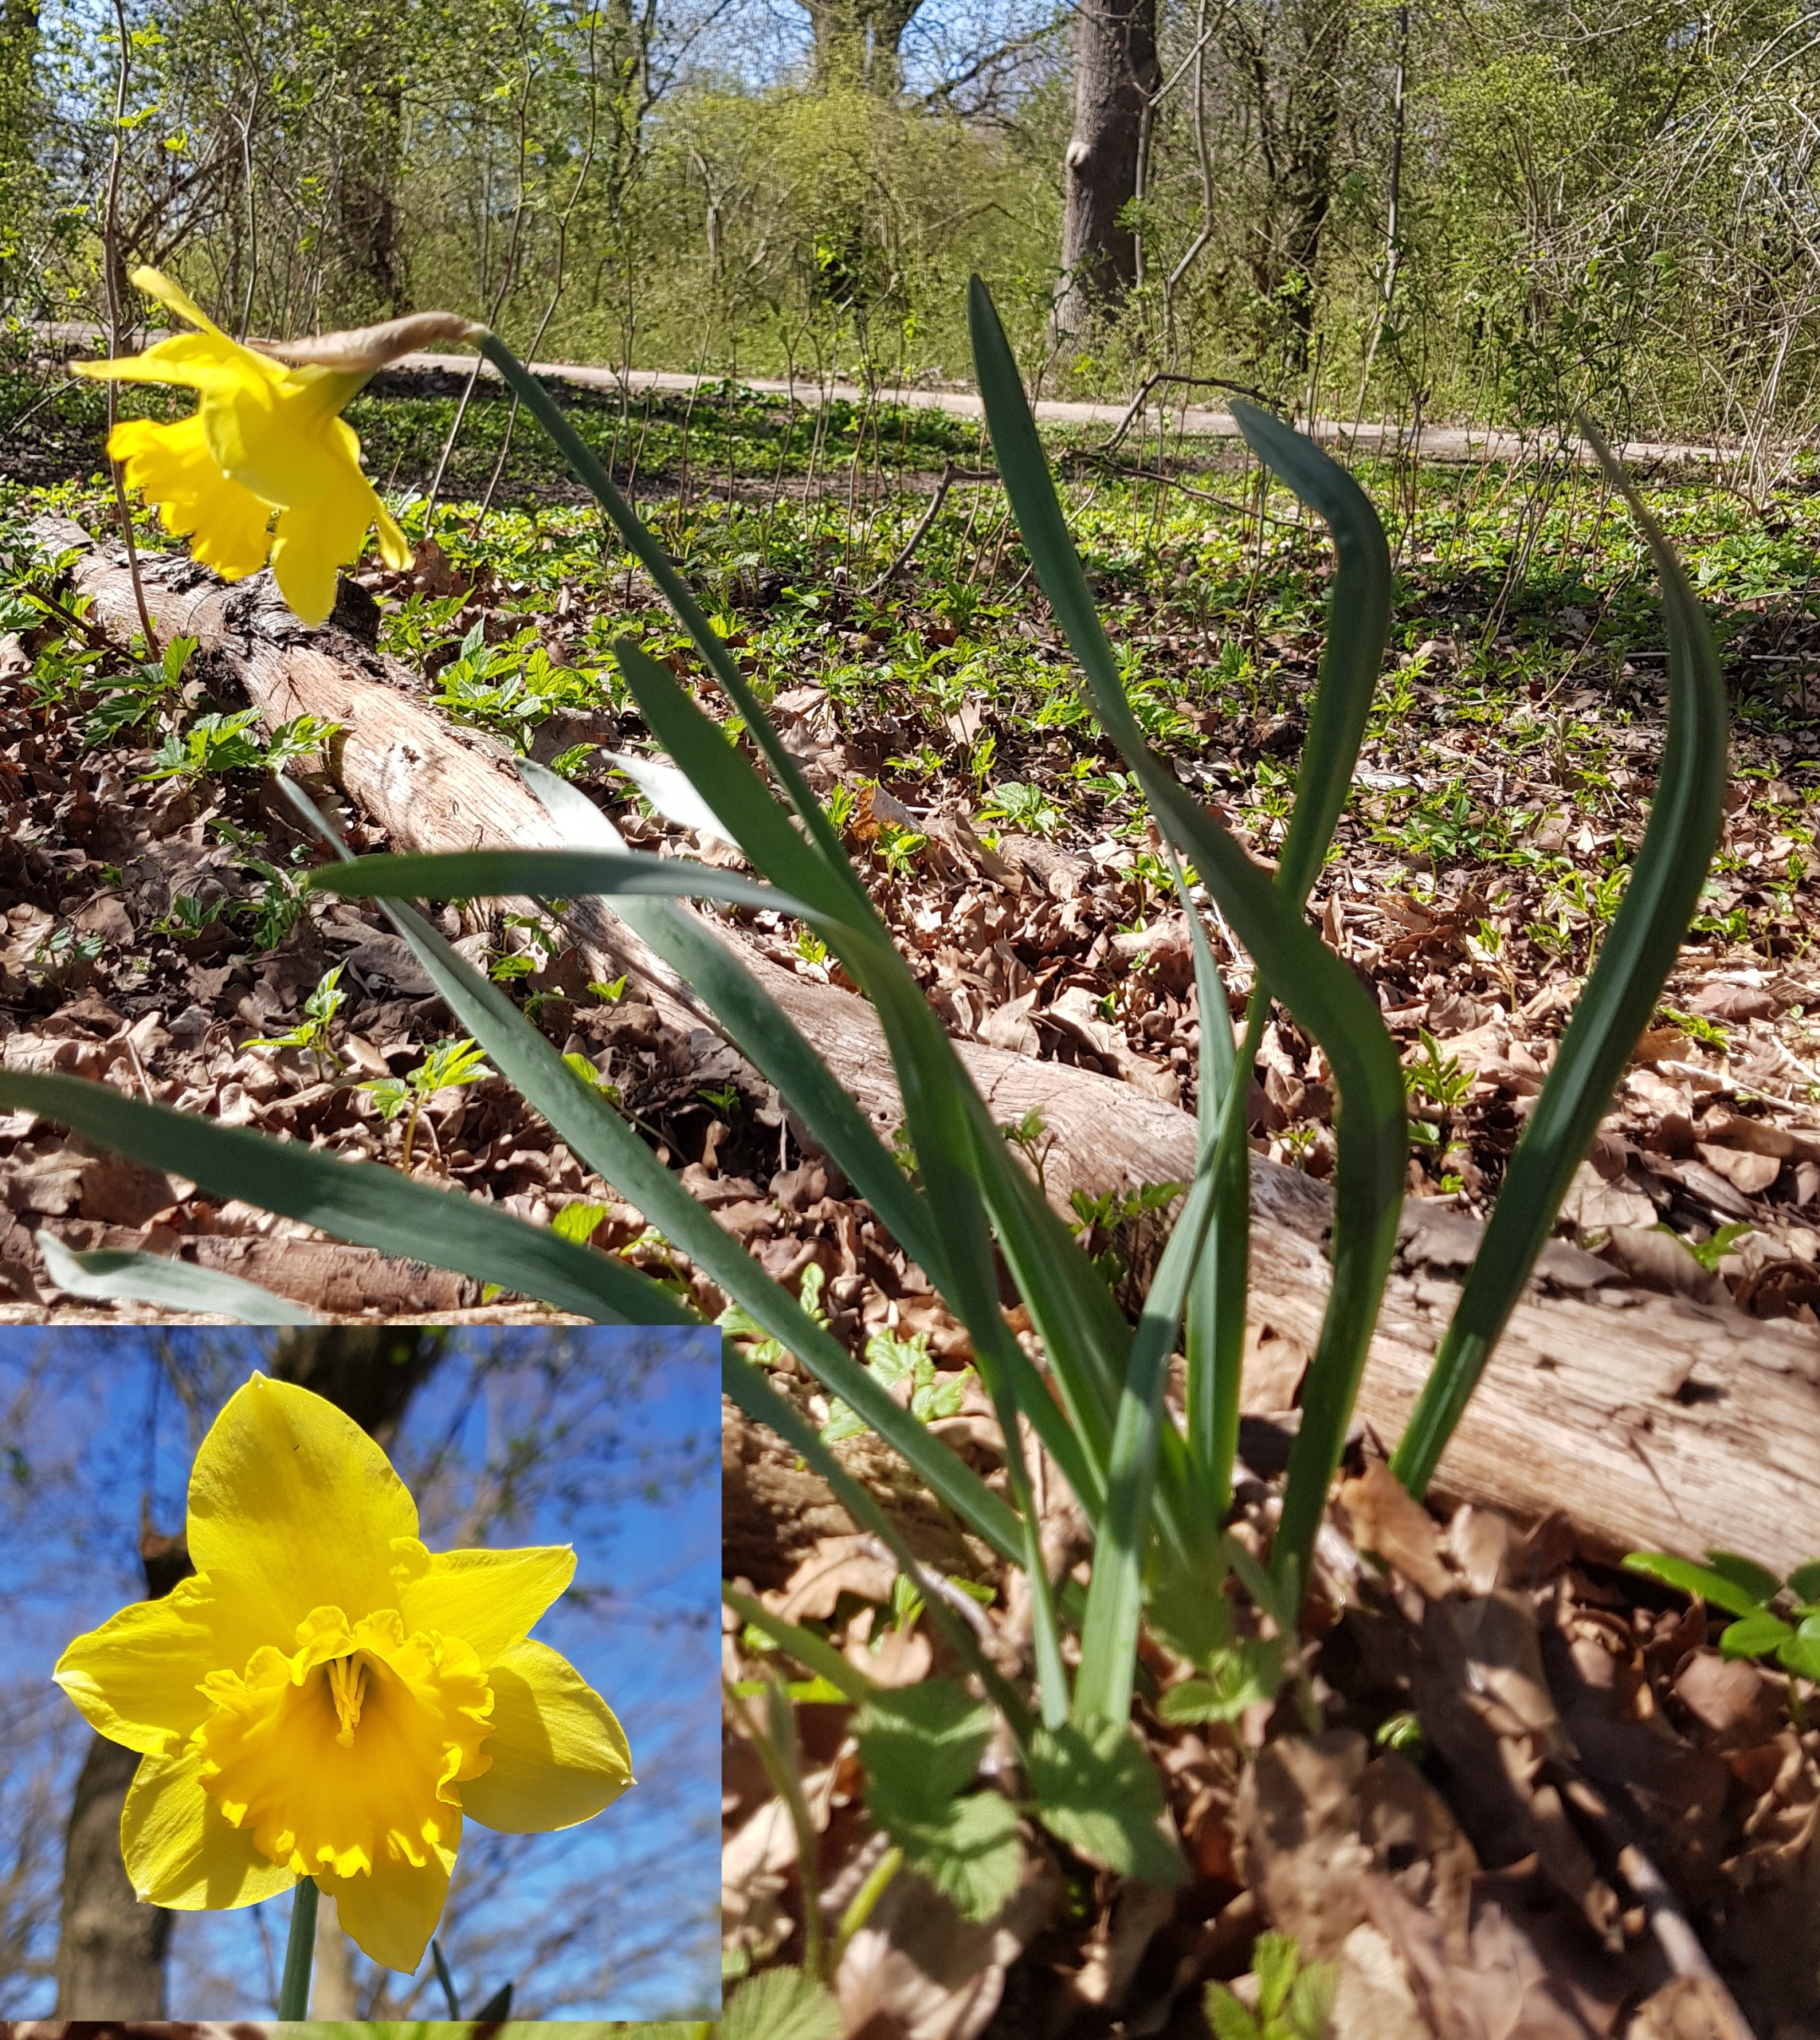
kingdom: Plantae
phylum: Tracheophyta
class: Liliopsida
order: Asparagales
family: Amaryllidaceae
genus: Narcissus
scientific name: Narcissus pseudonarcissus
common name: Påskelilje
